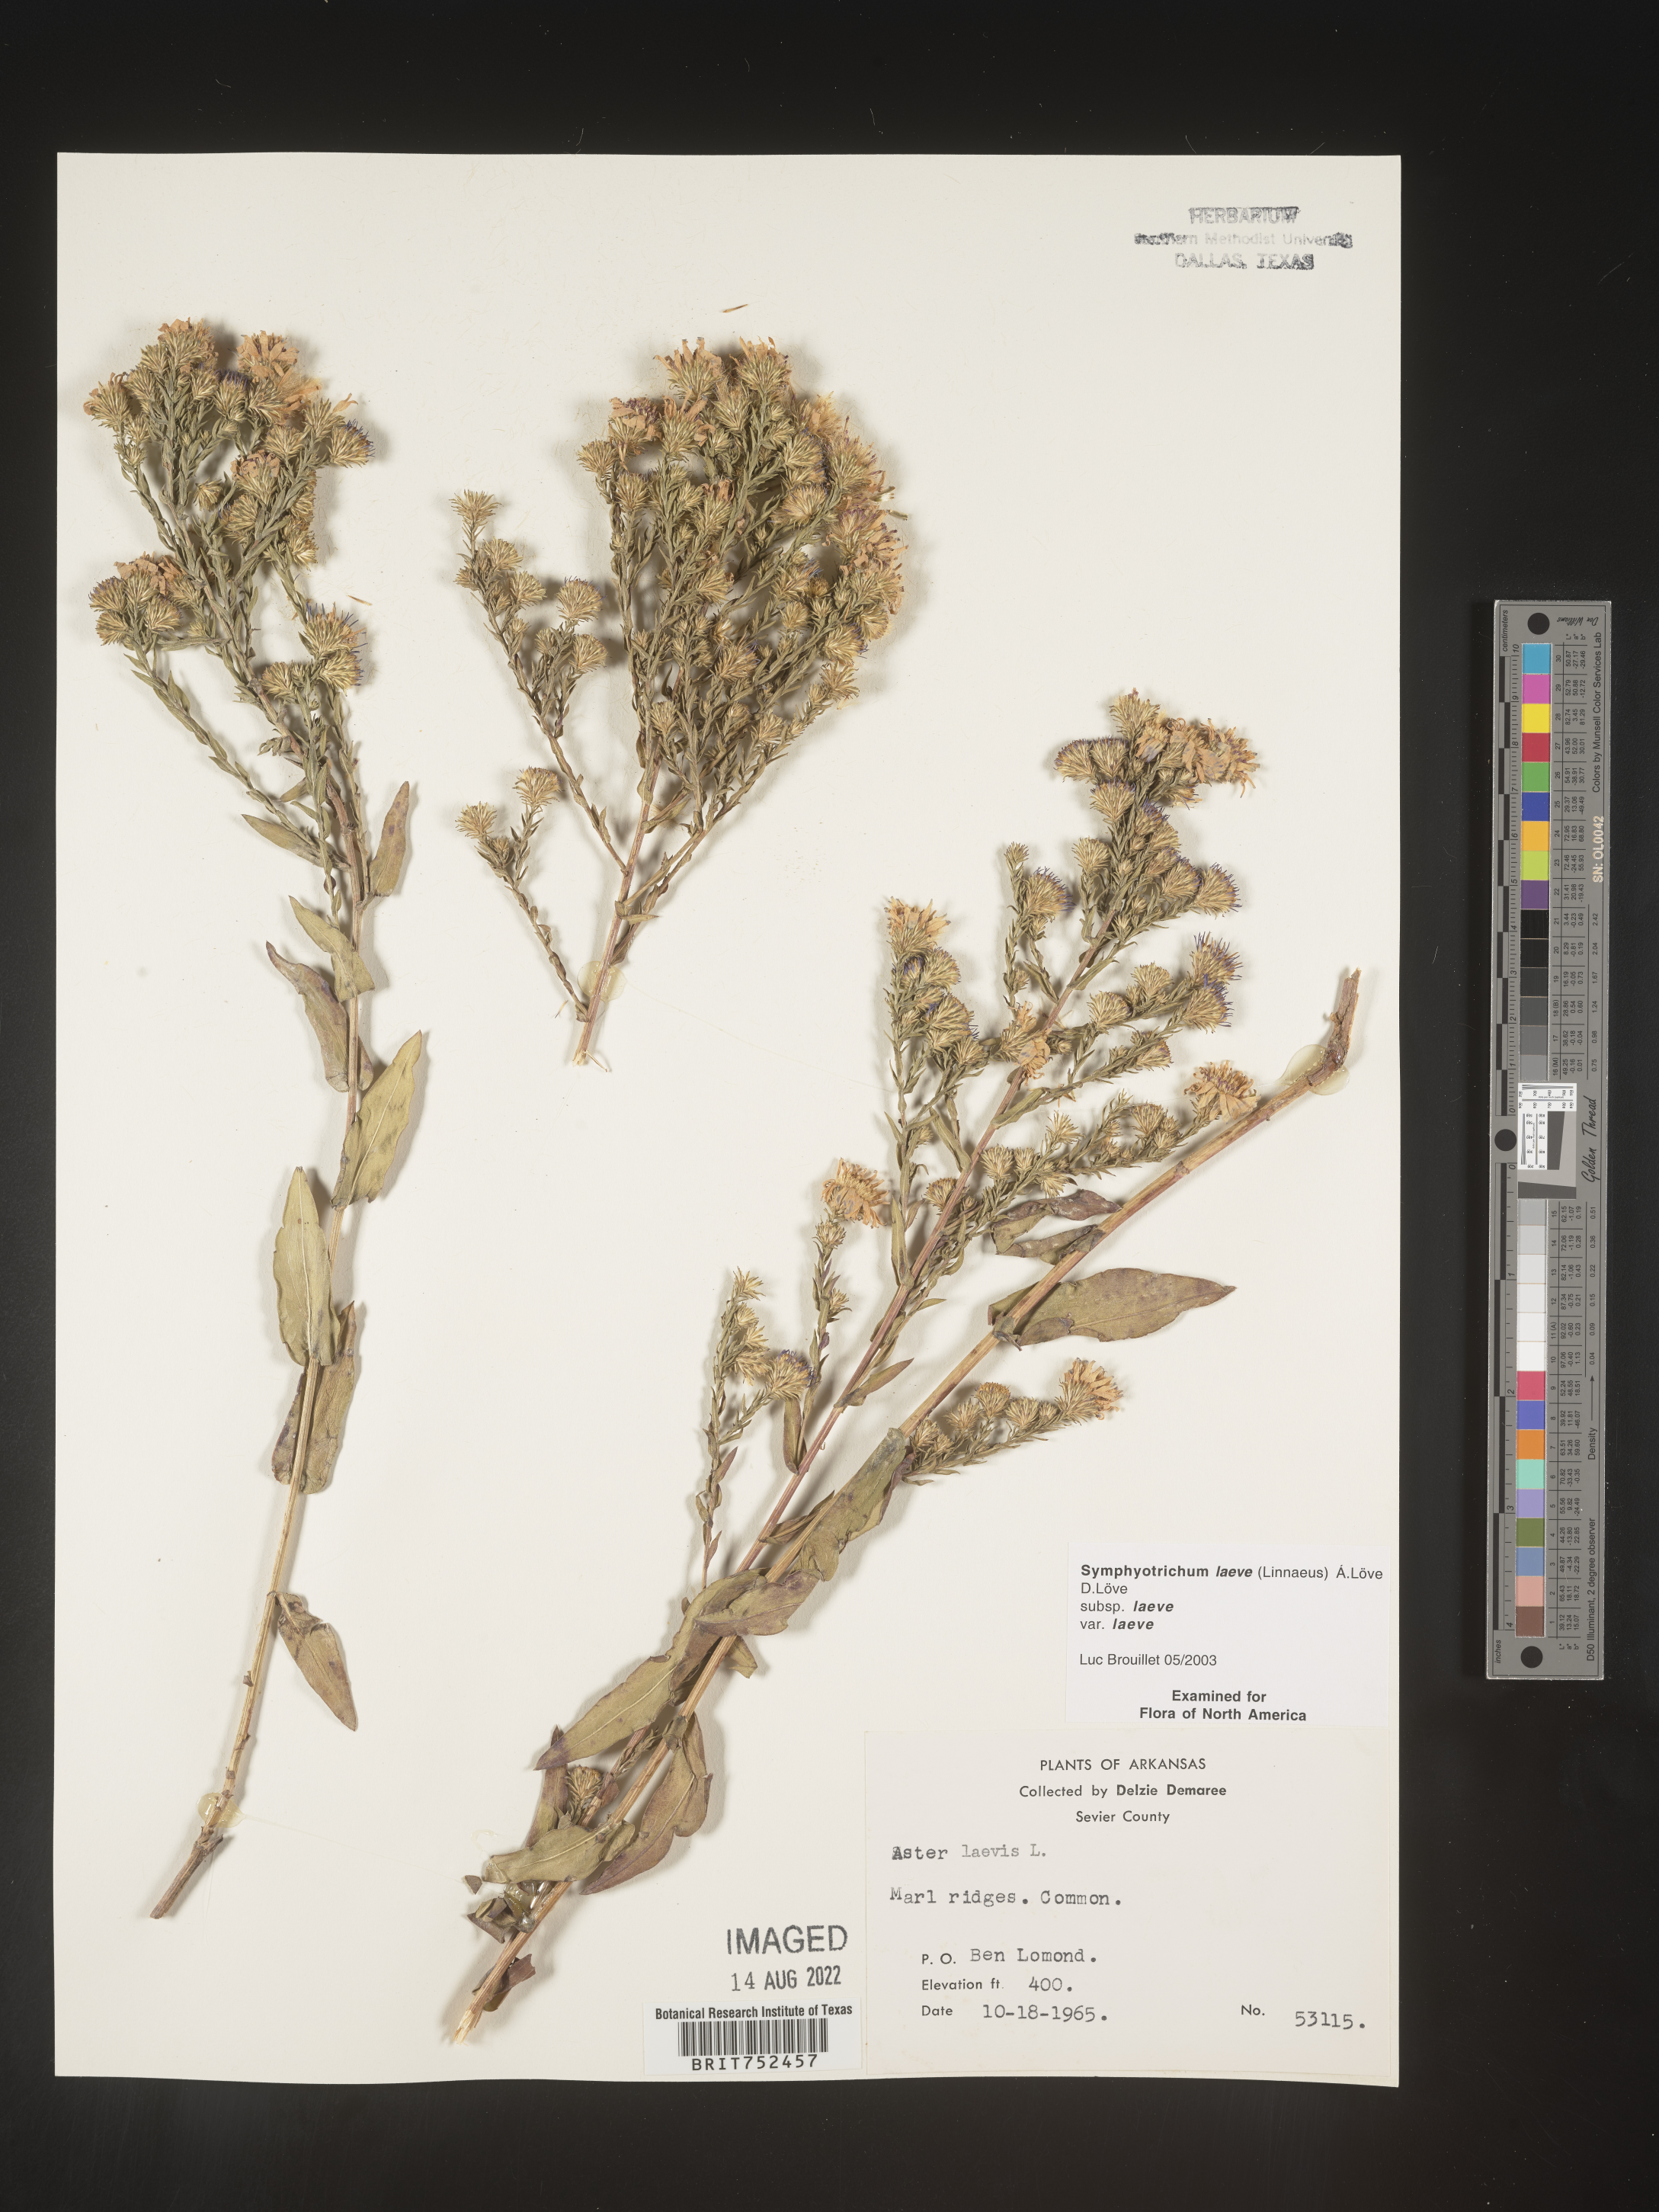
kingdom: Plantae
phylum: Tracheophyta
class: Magnoliopsida
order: Asterales
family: Asteraceae
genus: Symphyotrichum
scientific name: Symphyotrichum laeve
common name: Glaucous aster
